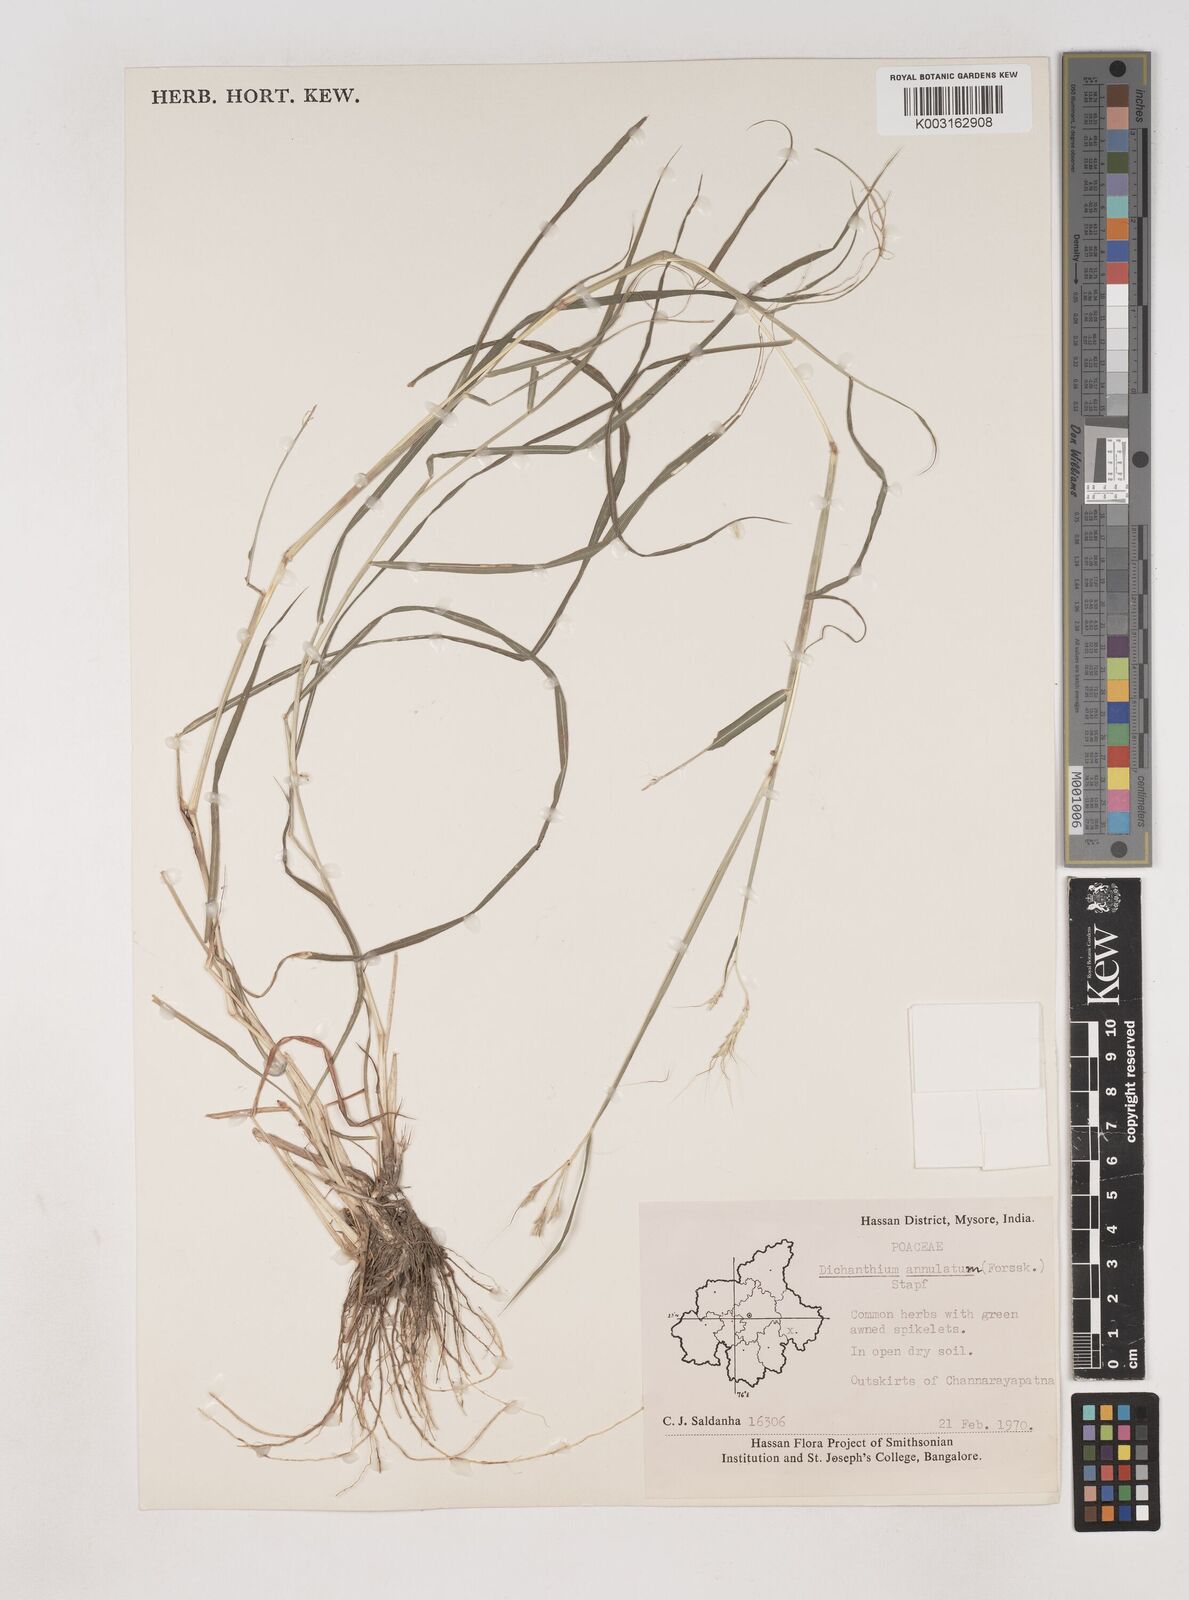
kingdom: Plantae
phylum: Tracheophyta
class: Liliopsida
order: Poales
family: Poaceae
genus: Dichanthium
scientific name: Dichanthium aristatum
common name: Angleton bluestem
